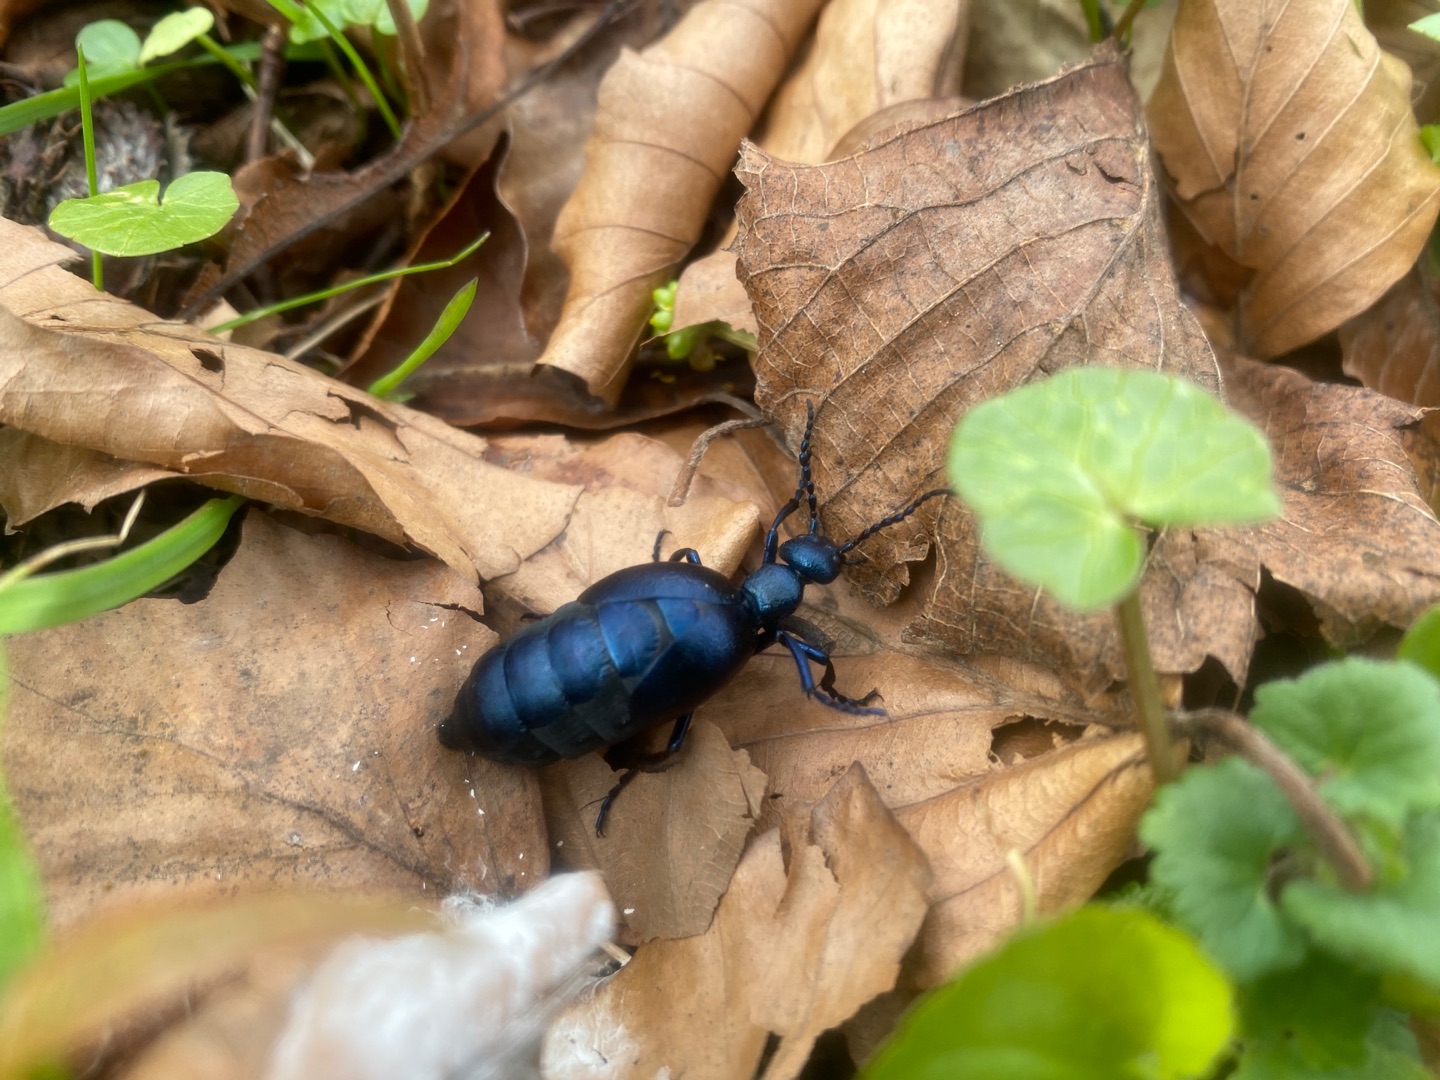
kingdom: Animalia
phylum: Arthropoda
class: Insecta
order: Coleoptera
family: Meloidae
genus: Meloe
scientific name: Meloe violaceus
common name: Blå oliebille
